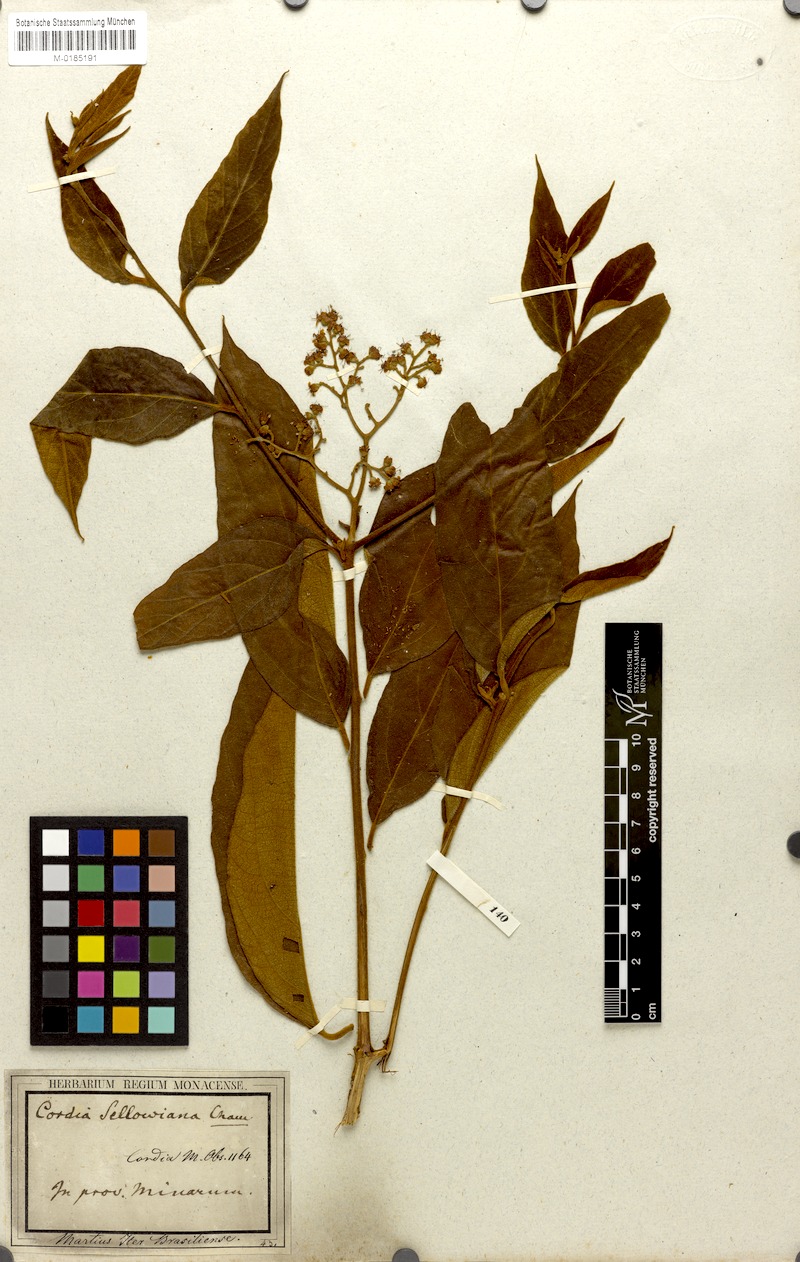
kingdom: Plantae
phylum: Tracheophyta
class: Magnoliopsida
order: Boraginales
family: Cordiaceae
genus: Cordia
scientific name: Cordia sellowiana
